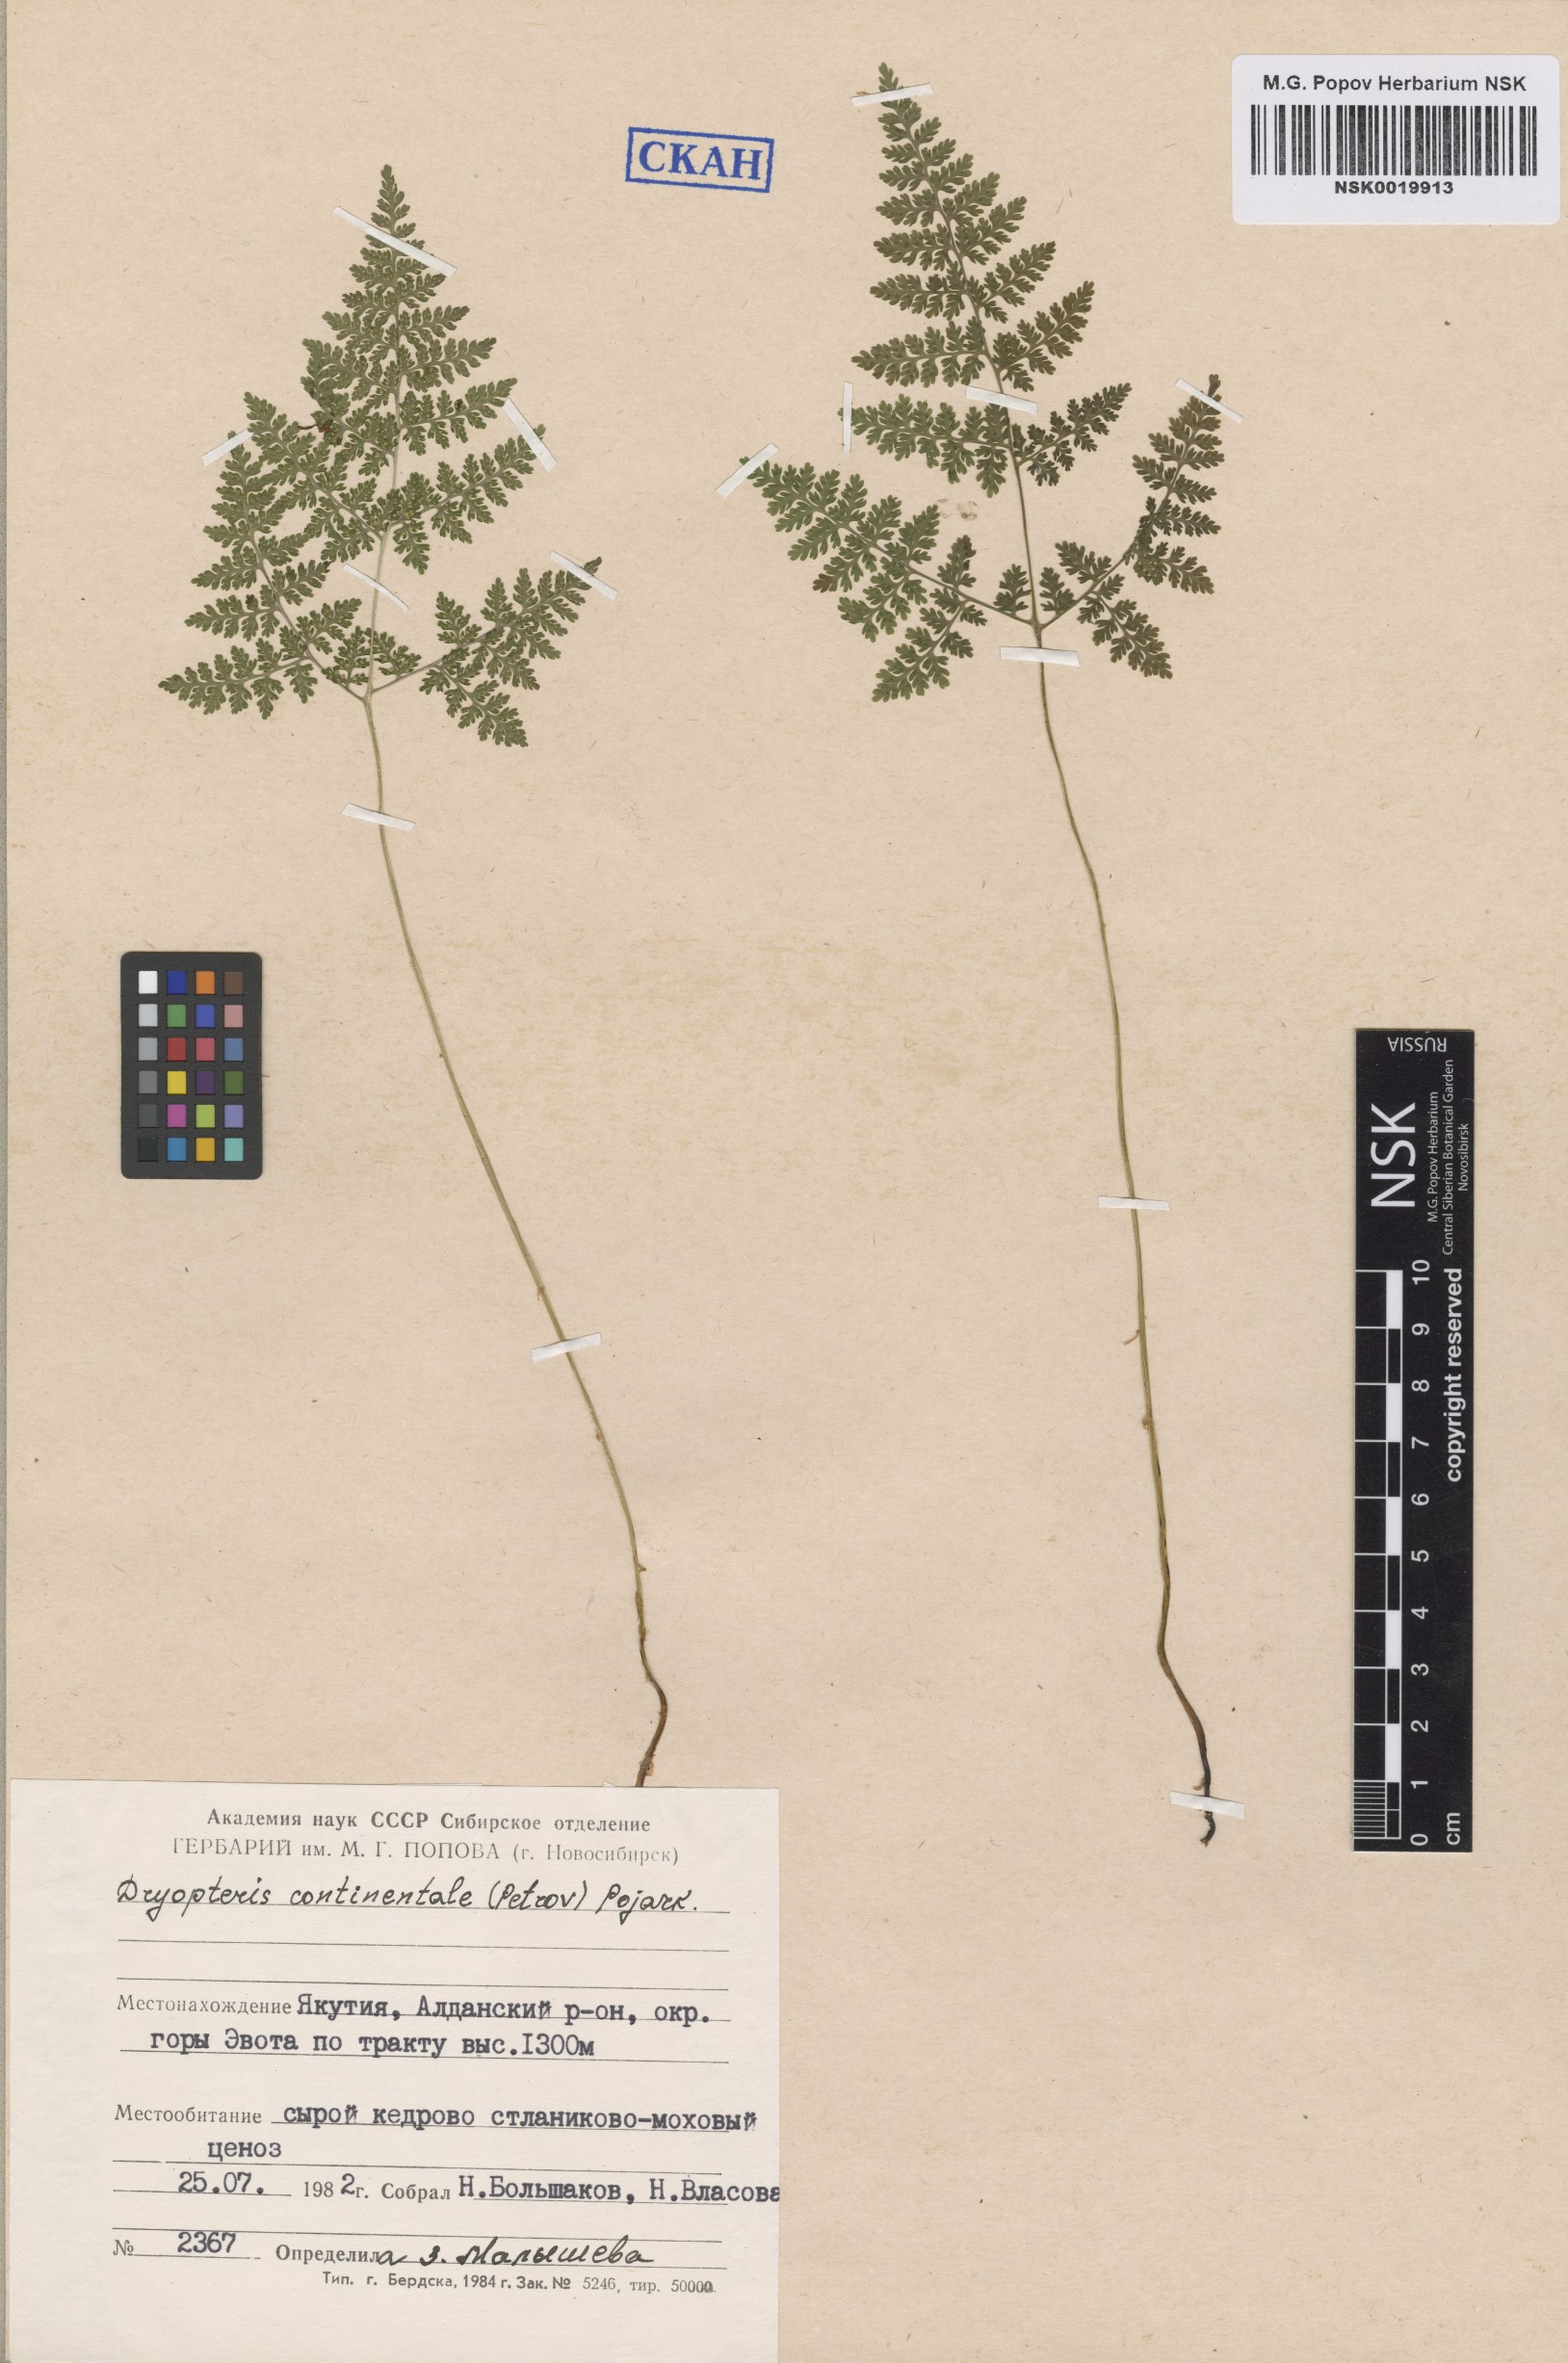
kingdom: Plantae
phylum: Tracheophyta
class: Polypodiopsida
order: Polypodiales
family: Cystopteridaceae
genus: Gymnocarpium
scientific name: Gymnocarpium continentale
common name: Asian oak fern
